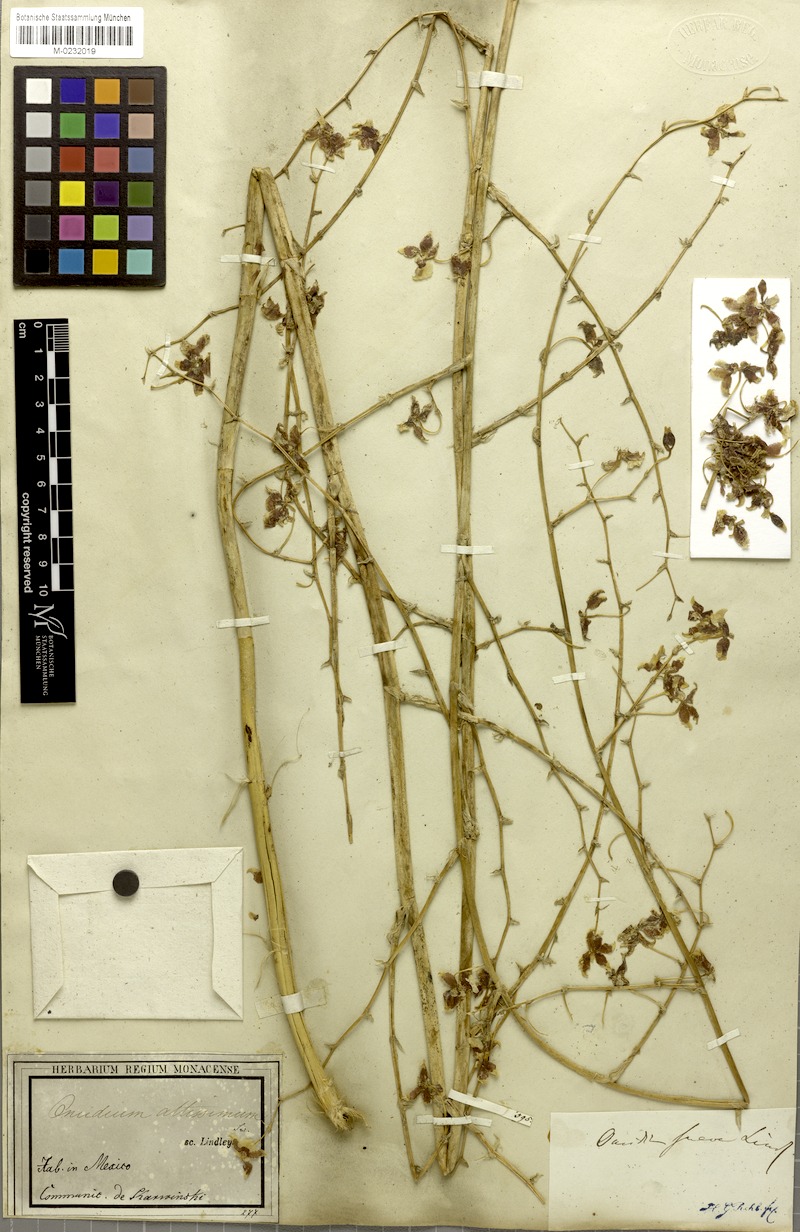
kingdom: Plantae
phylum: Tracheophyta
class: Liliopsida
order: Asparagales
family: Orchidaceae
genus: Oncidium
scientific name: Oncidium baueri
